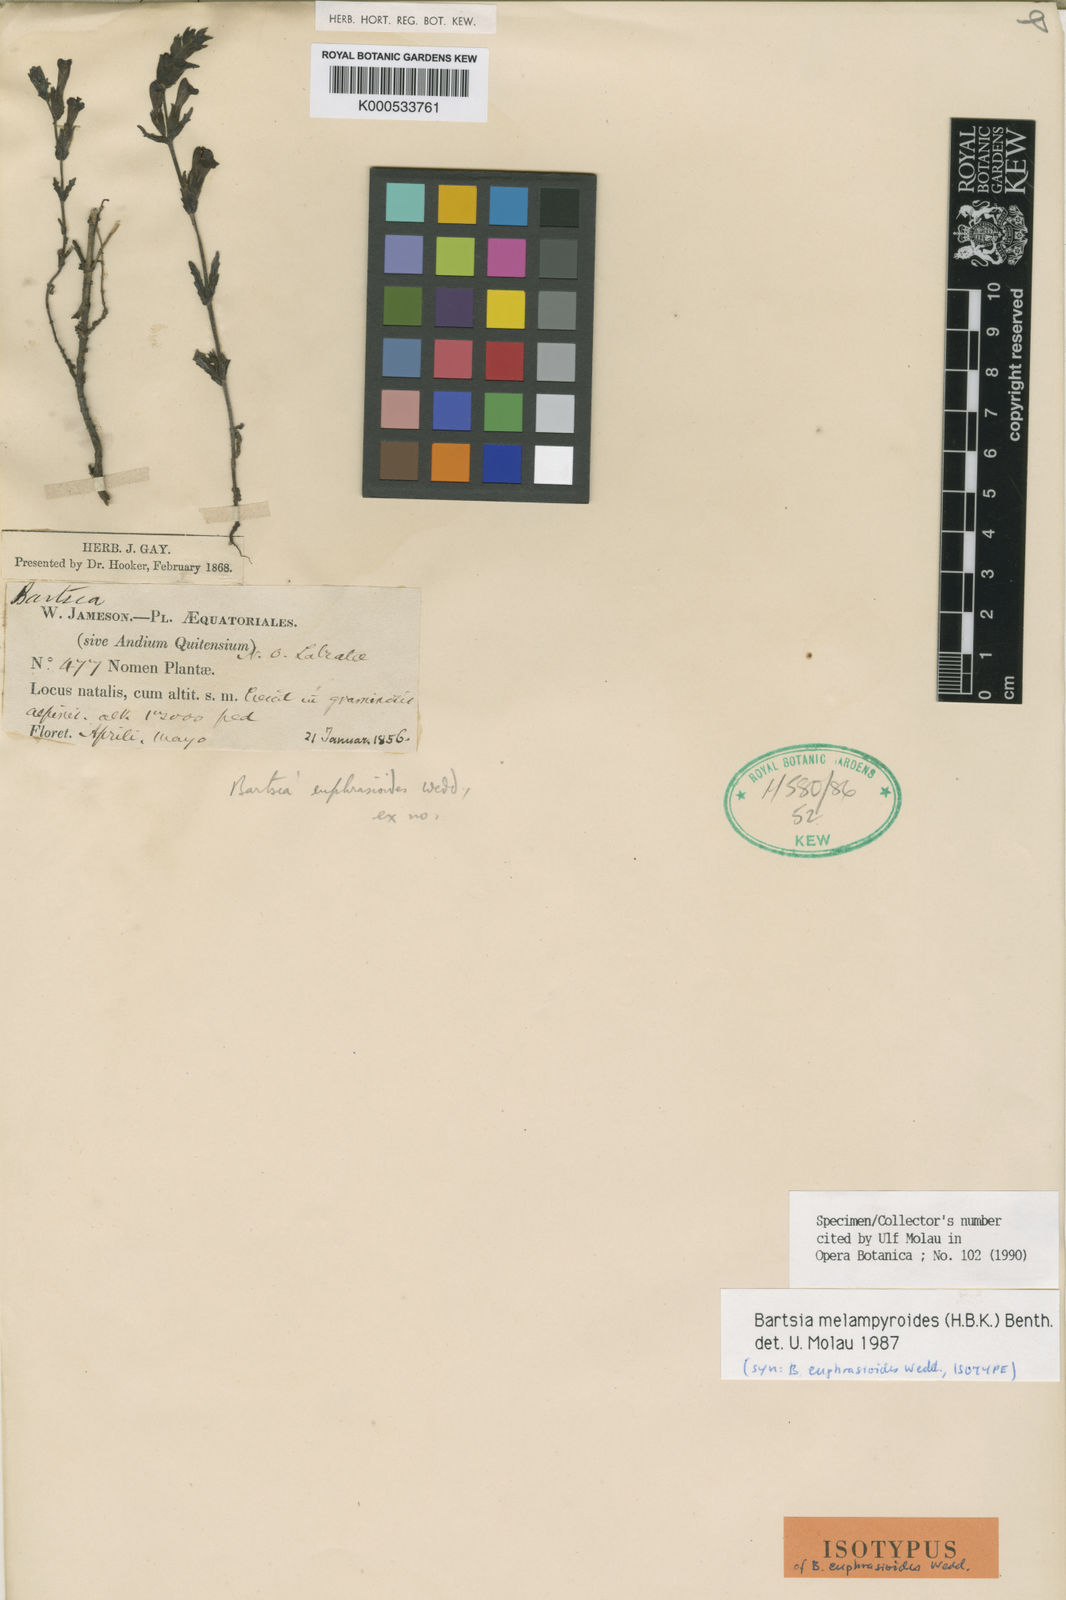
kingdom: Plantae
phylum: Tracheophyta
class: Magnoliopsida
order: Lamiales
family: Orobanchaceae
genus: Neobartsia
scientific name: Neobartsia melampyroides
